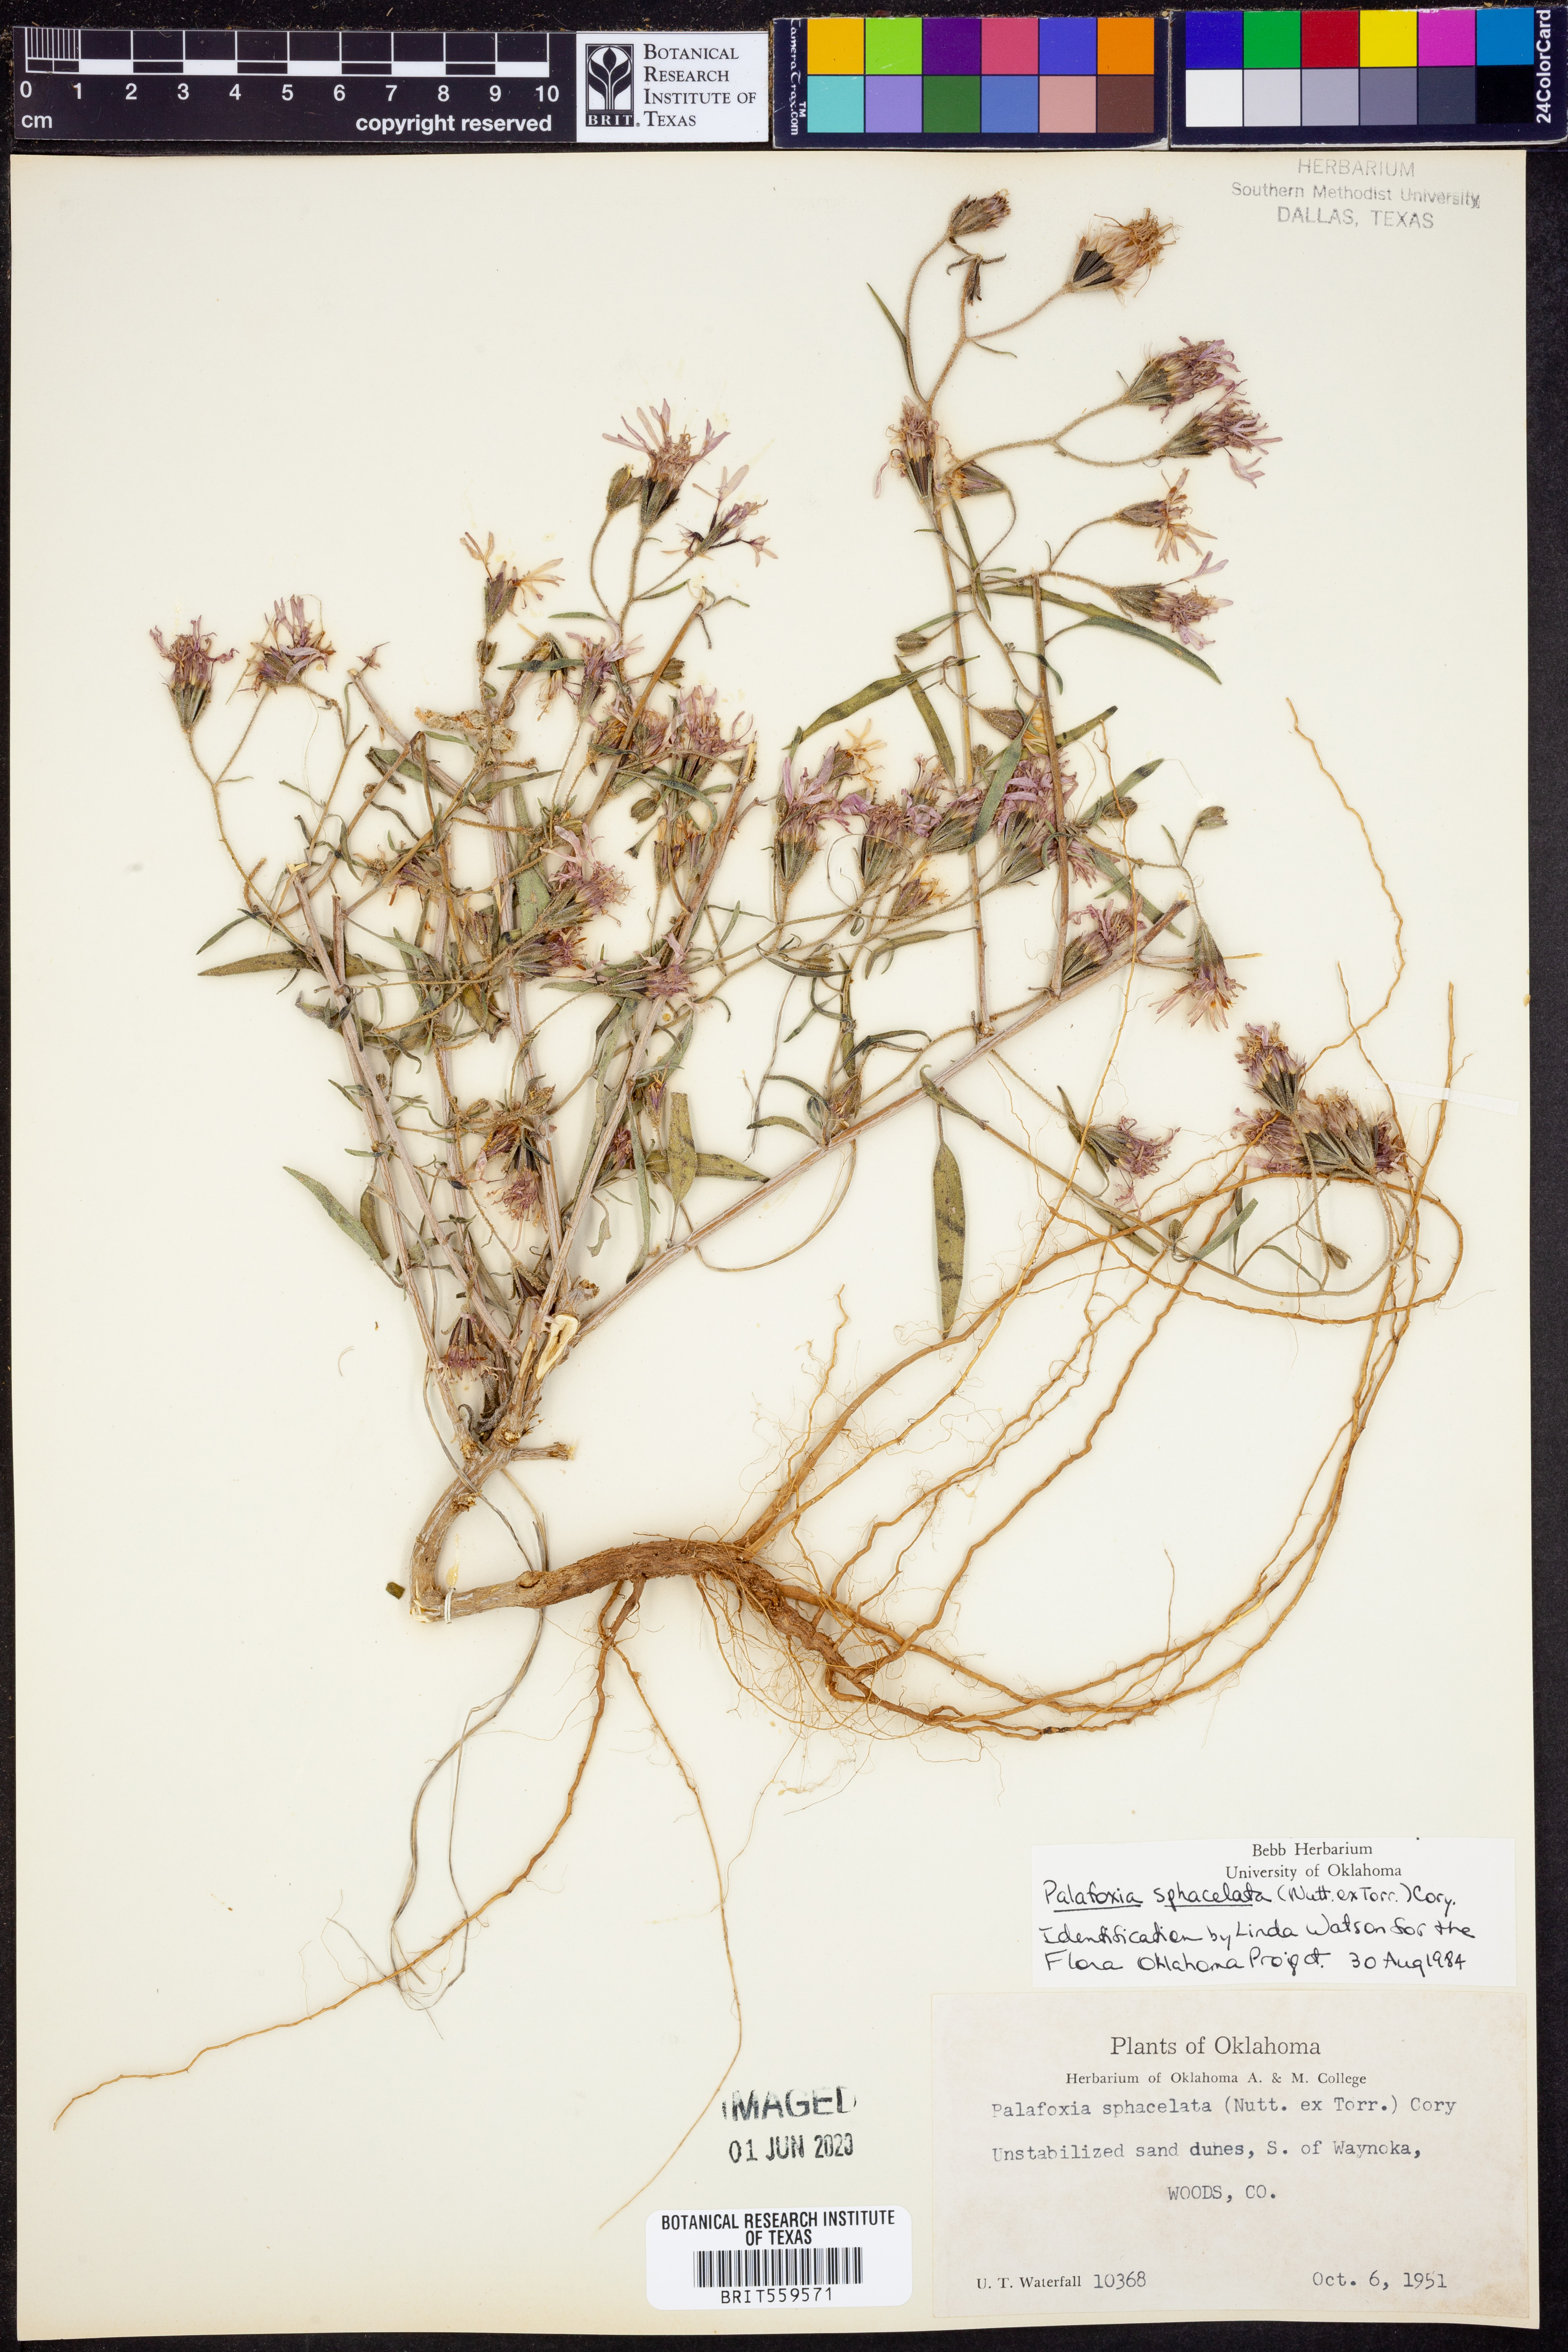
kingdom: Plantae
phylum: Tracheophyta
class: Magnoliopsida
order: Asterales
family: Asteraceae
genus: Palafoxia
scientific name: Palafoxia sphacelata
